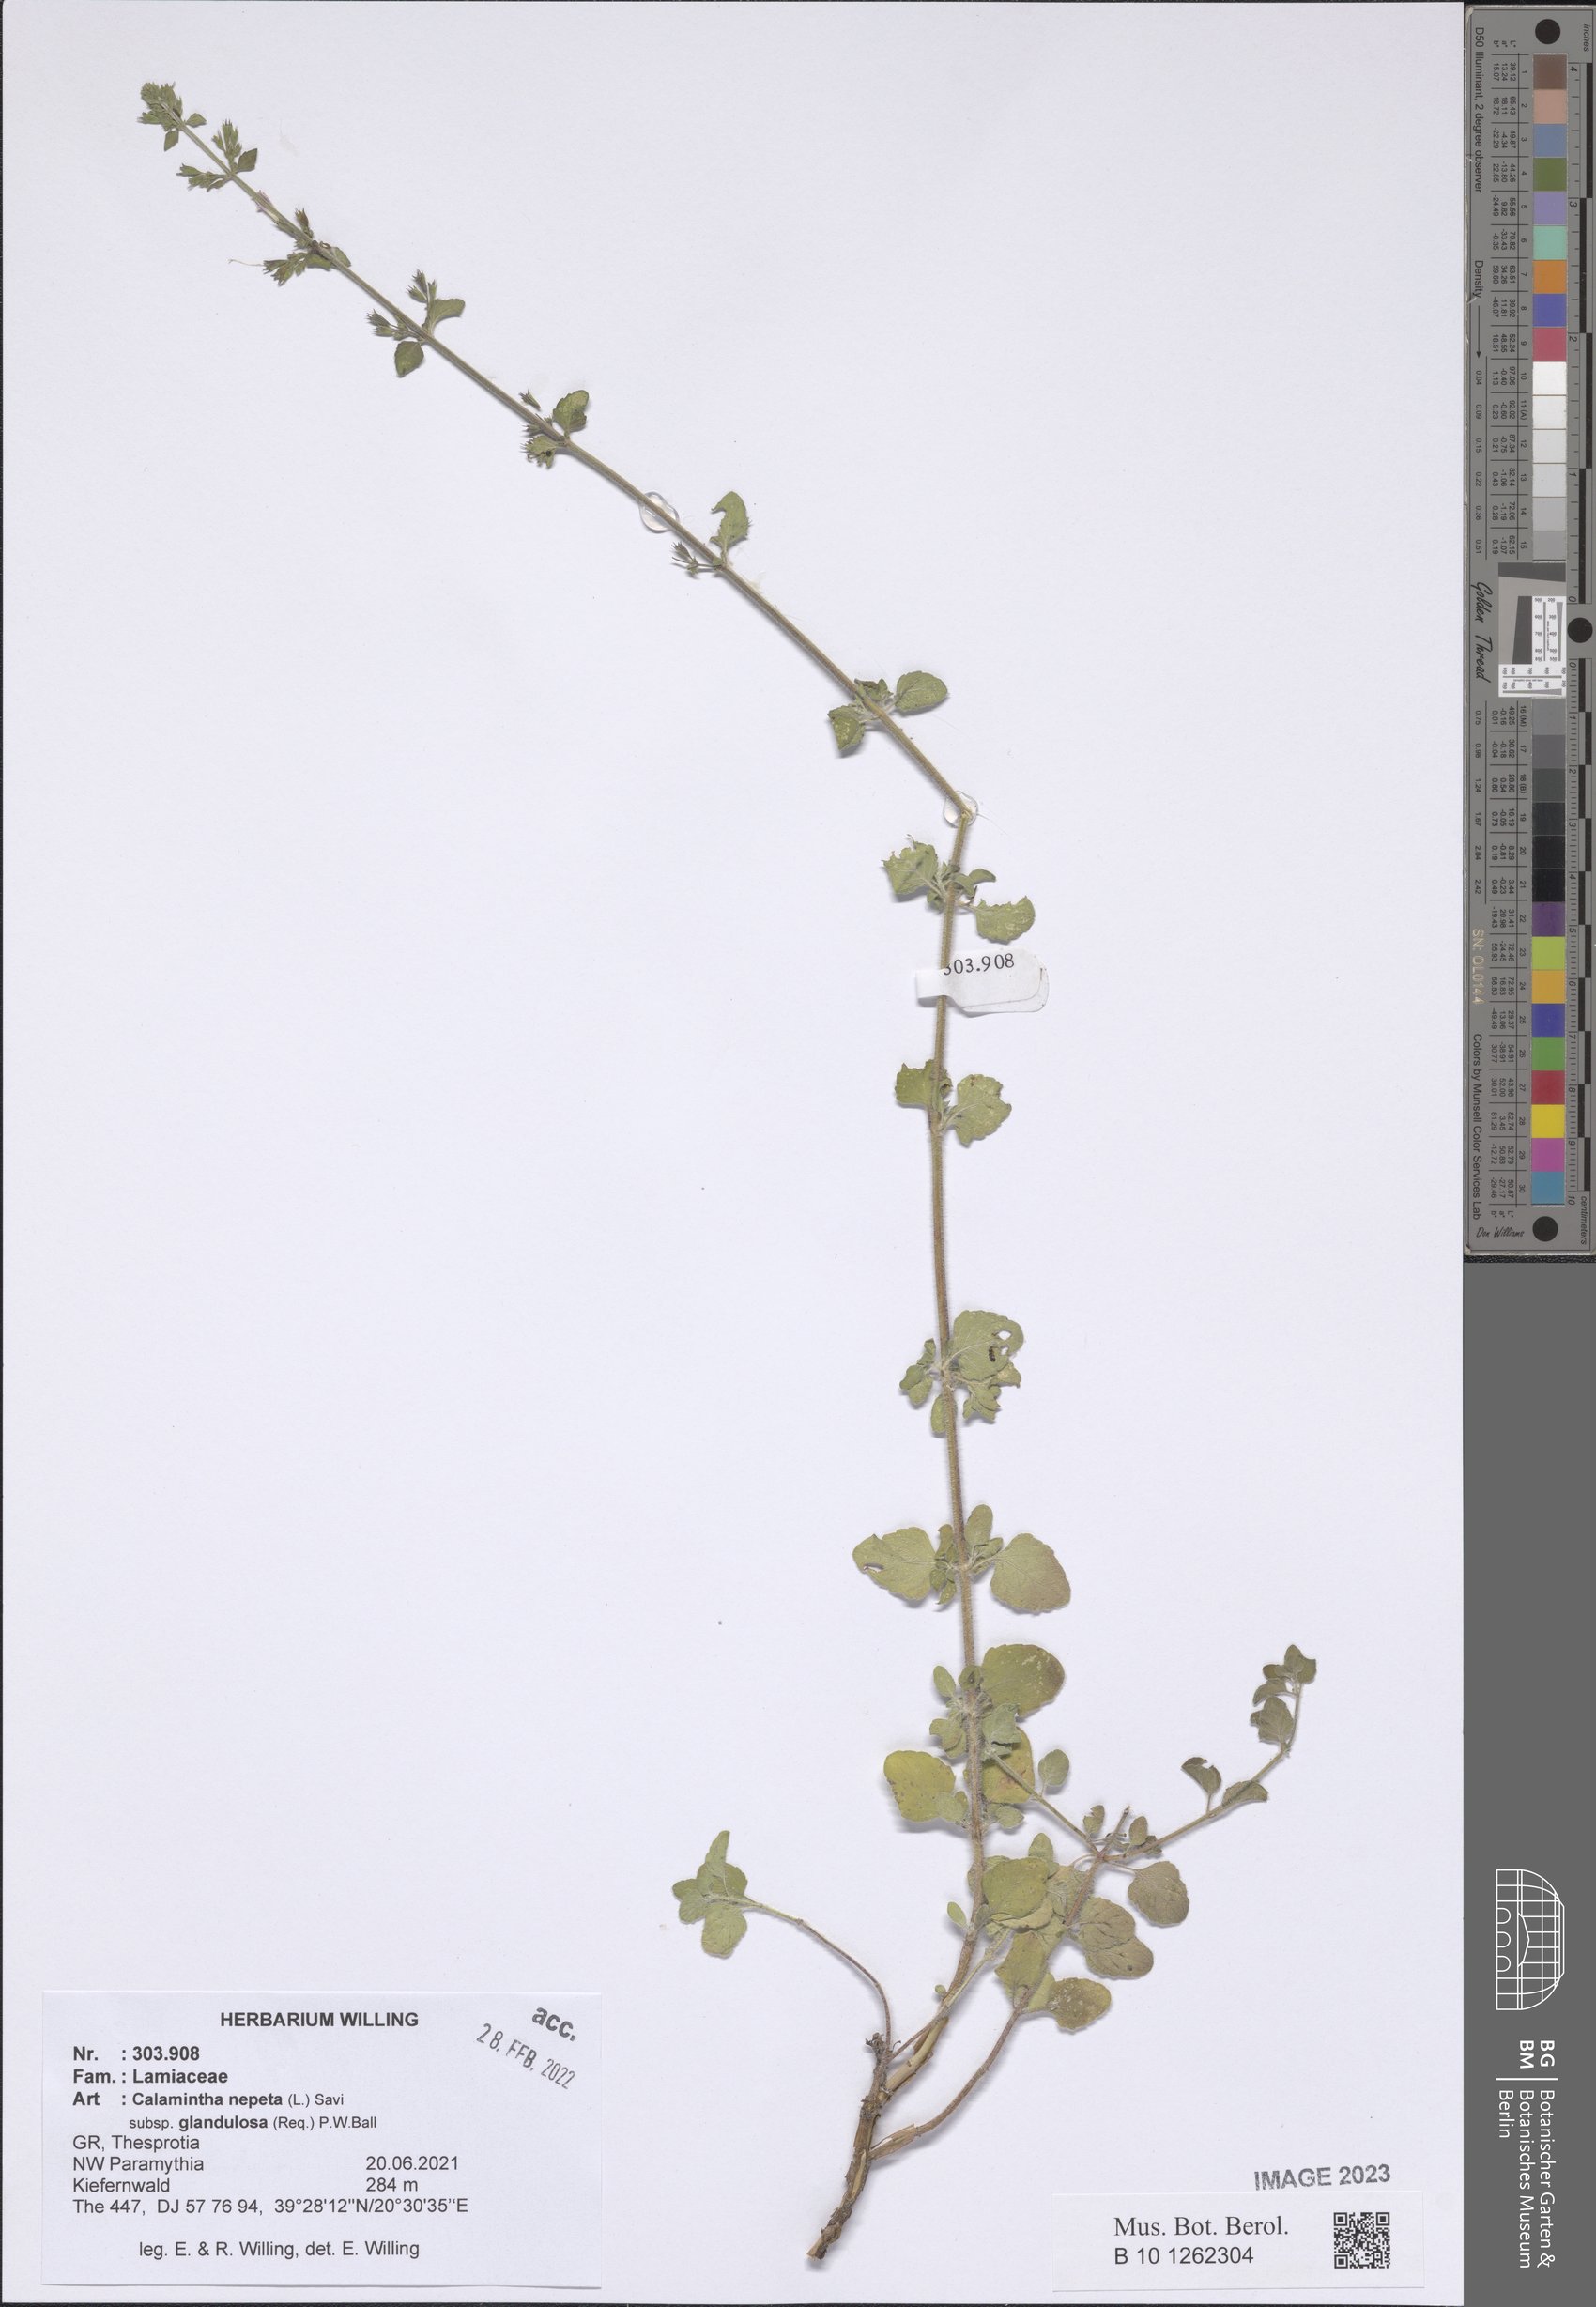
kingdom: Plantae
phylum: Tracheophyta
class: Magnoliopsida
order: Lamiales
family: Lamiaceae
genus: Clinopodium
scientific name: Clinopodium nepeta
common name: Lesser calamint
